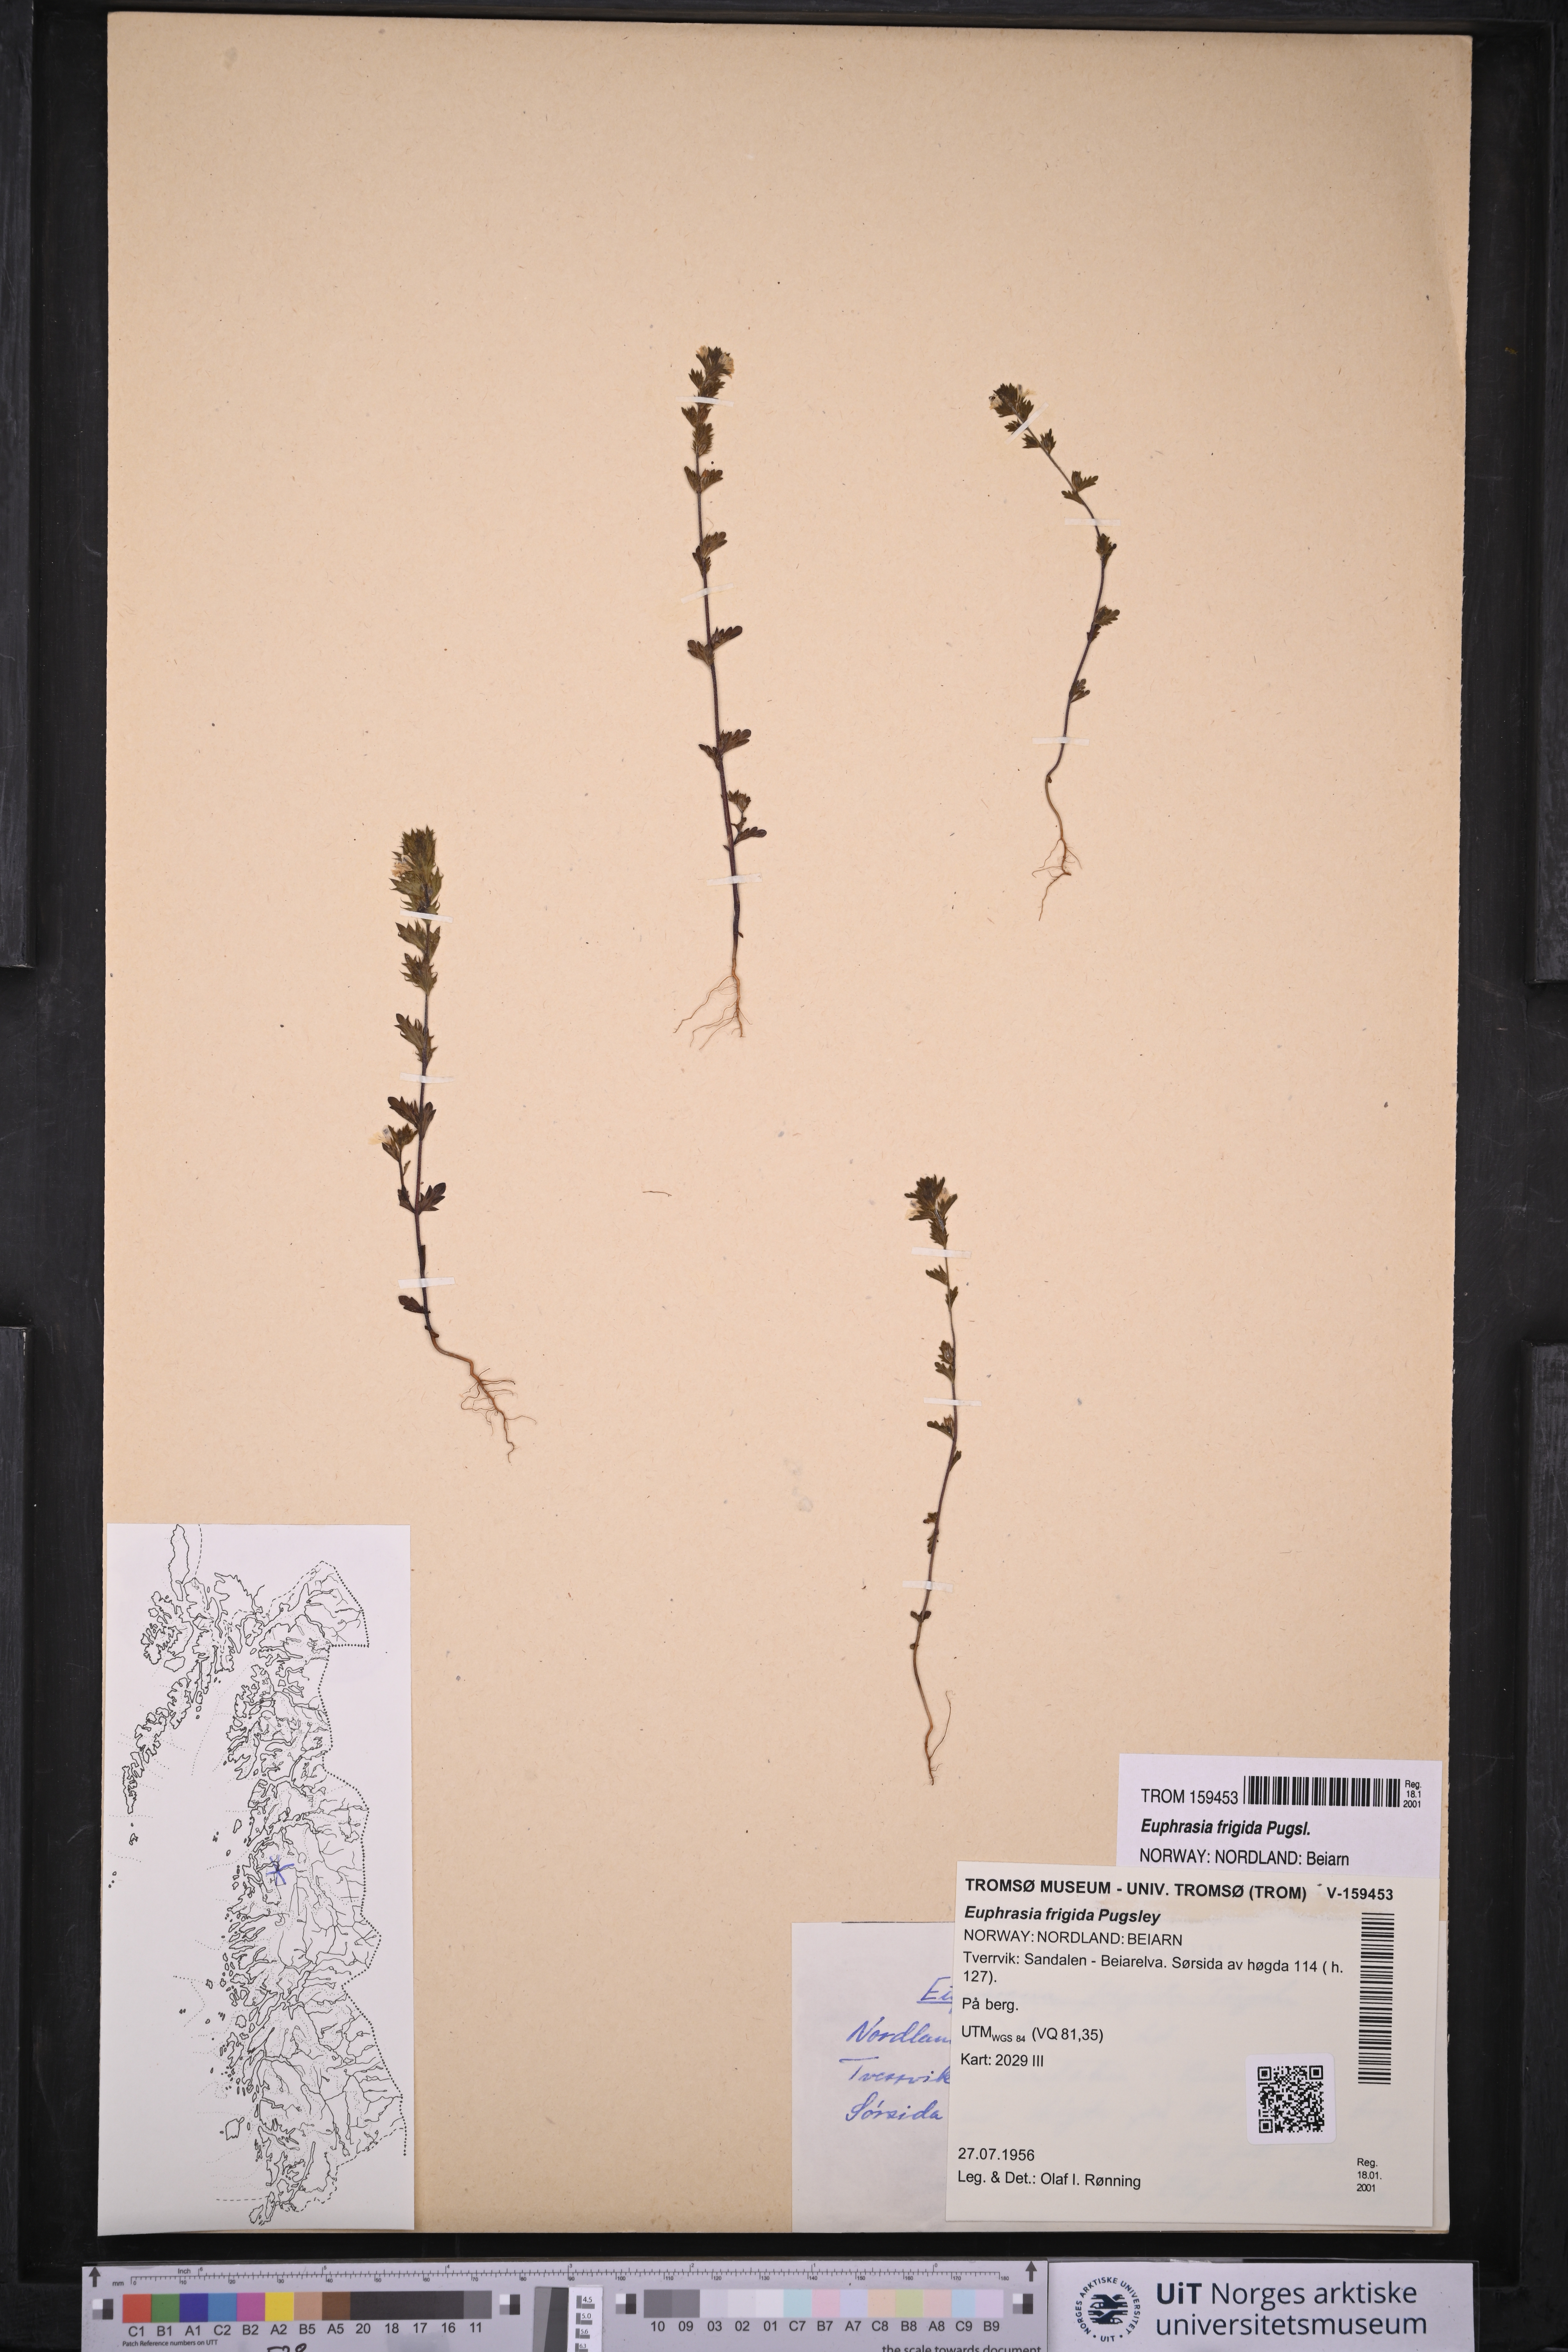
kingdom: Plantae
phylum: Tracheophyta
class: Magnoliopsida
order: Lamiales
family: Orobanchaceae
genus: Euphrasia
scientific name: Euphrasia frigida
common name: An eyebright
